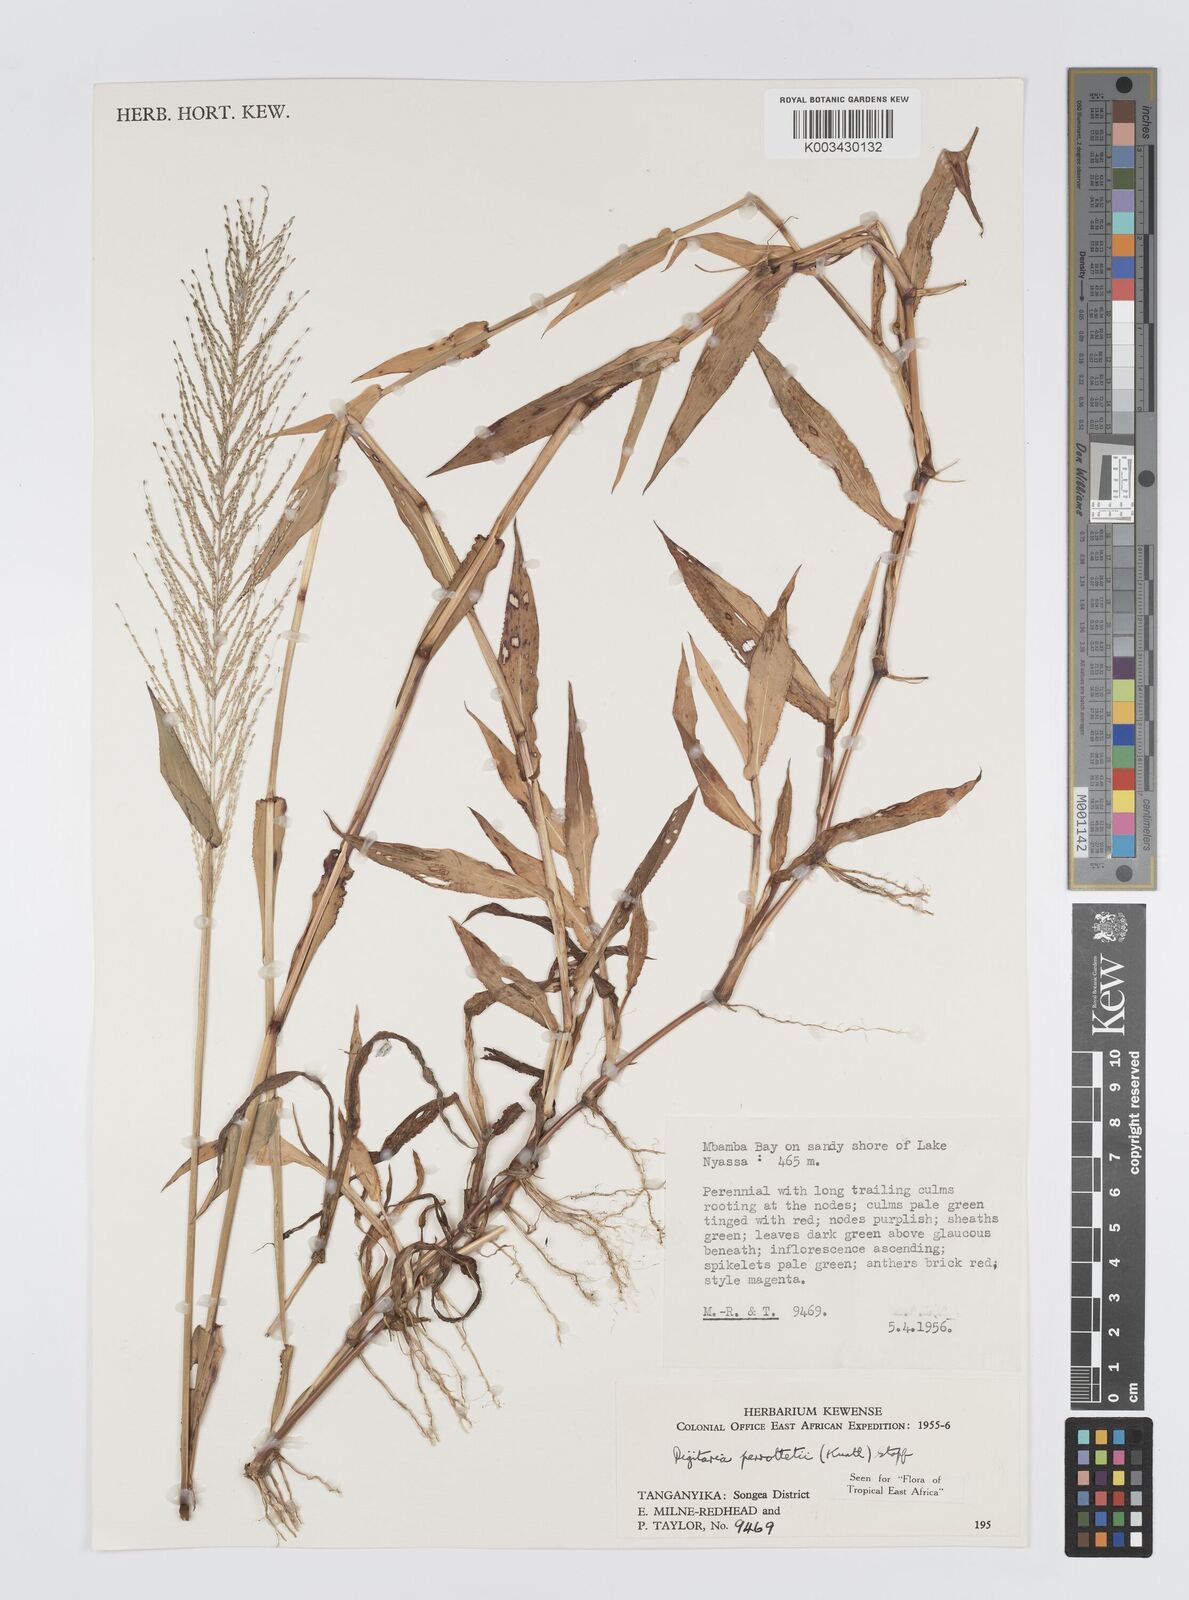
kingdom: Plantae
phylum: Tracheophyta
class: Liliopsida
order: Poales
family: Poaceae
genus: Digitaria
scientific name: Digitaria perrottetii
